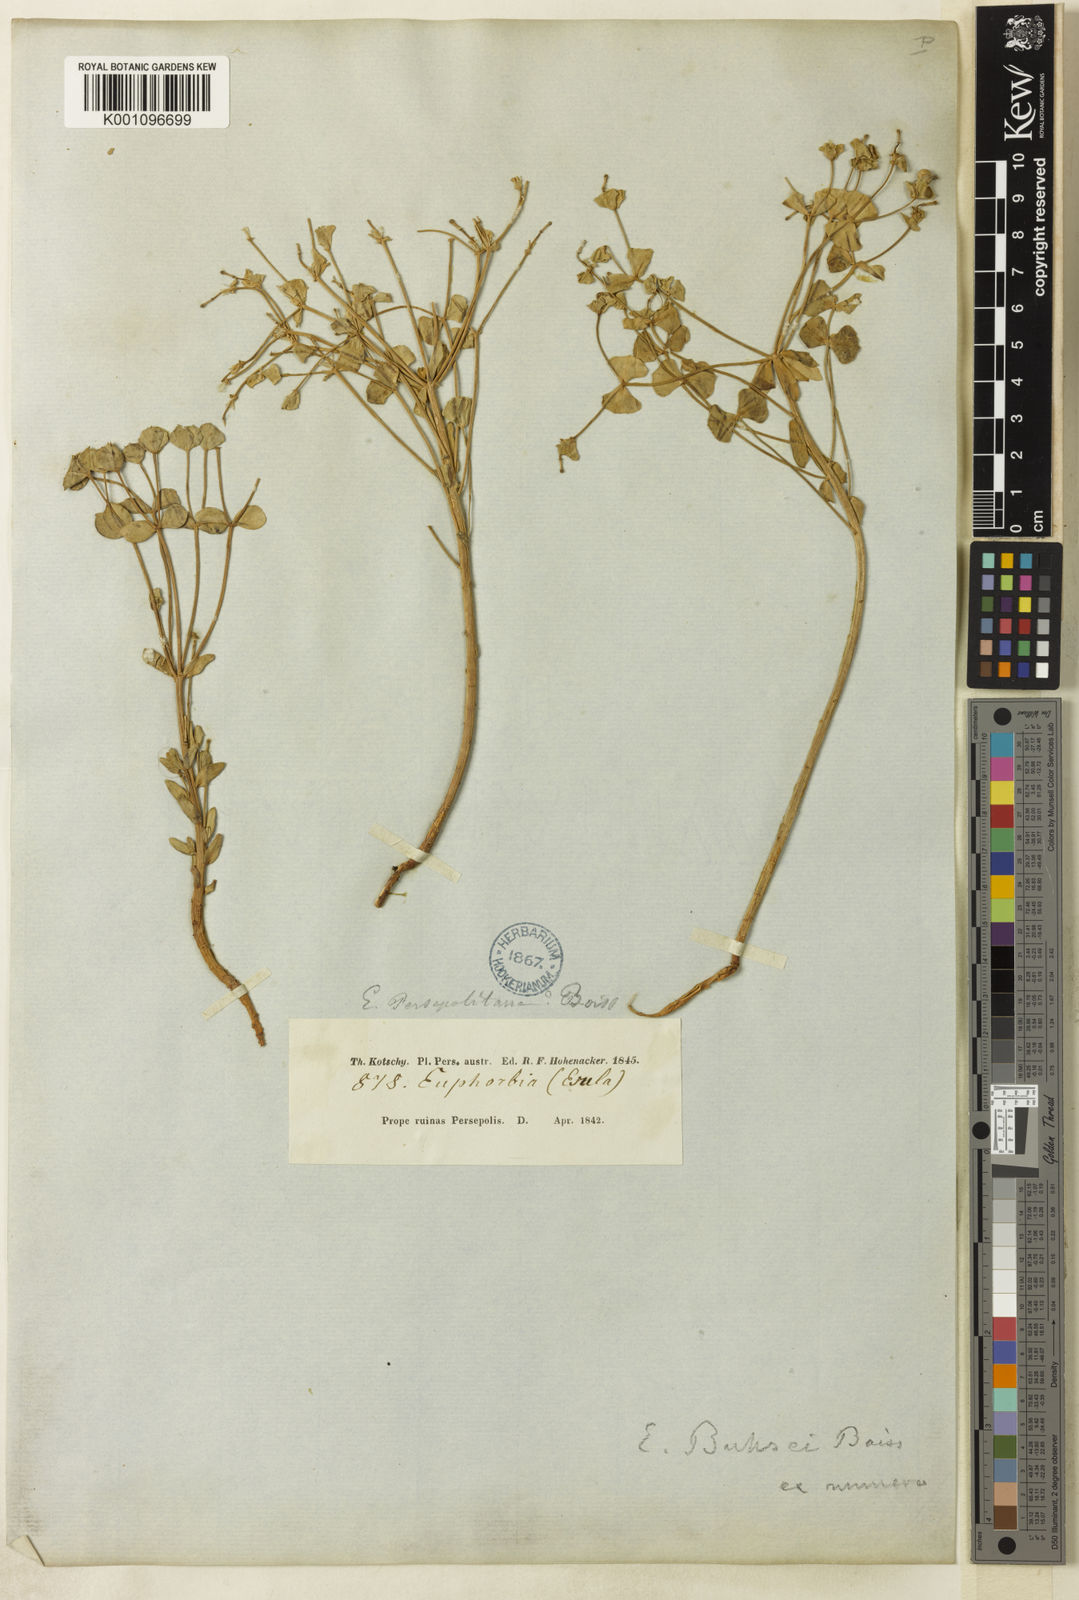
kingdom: Plantae
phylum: Tracheophyta
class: Magnoliopsida
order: Malpighiales
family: Euphorbiaceae
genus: Euphorbia
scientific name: Euphorbia buhsei
